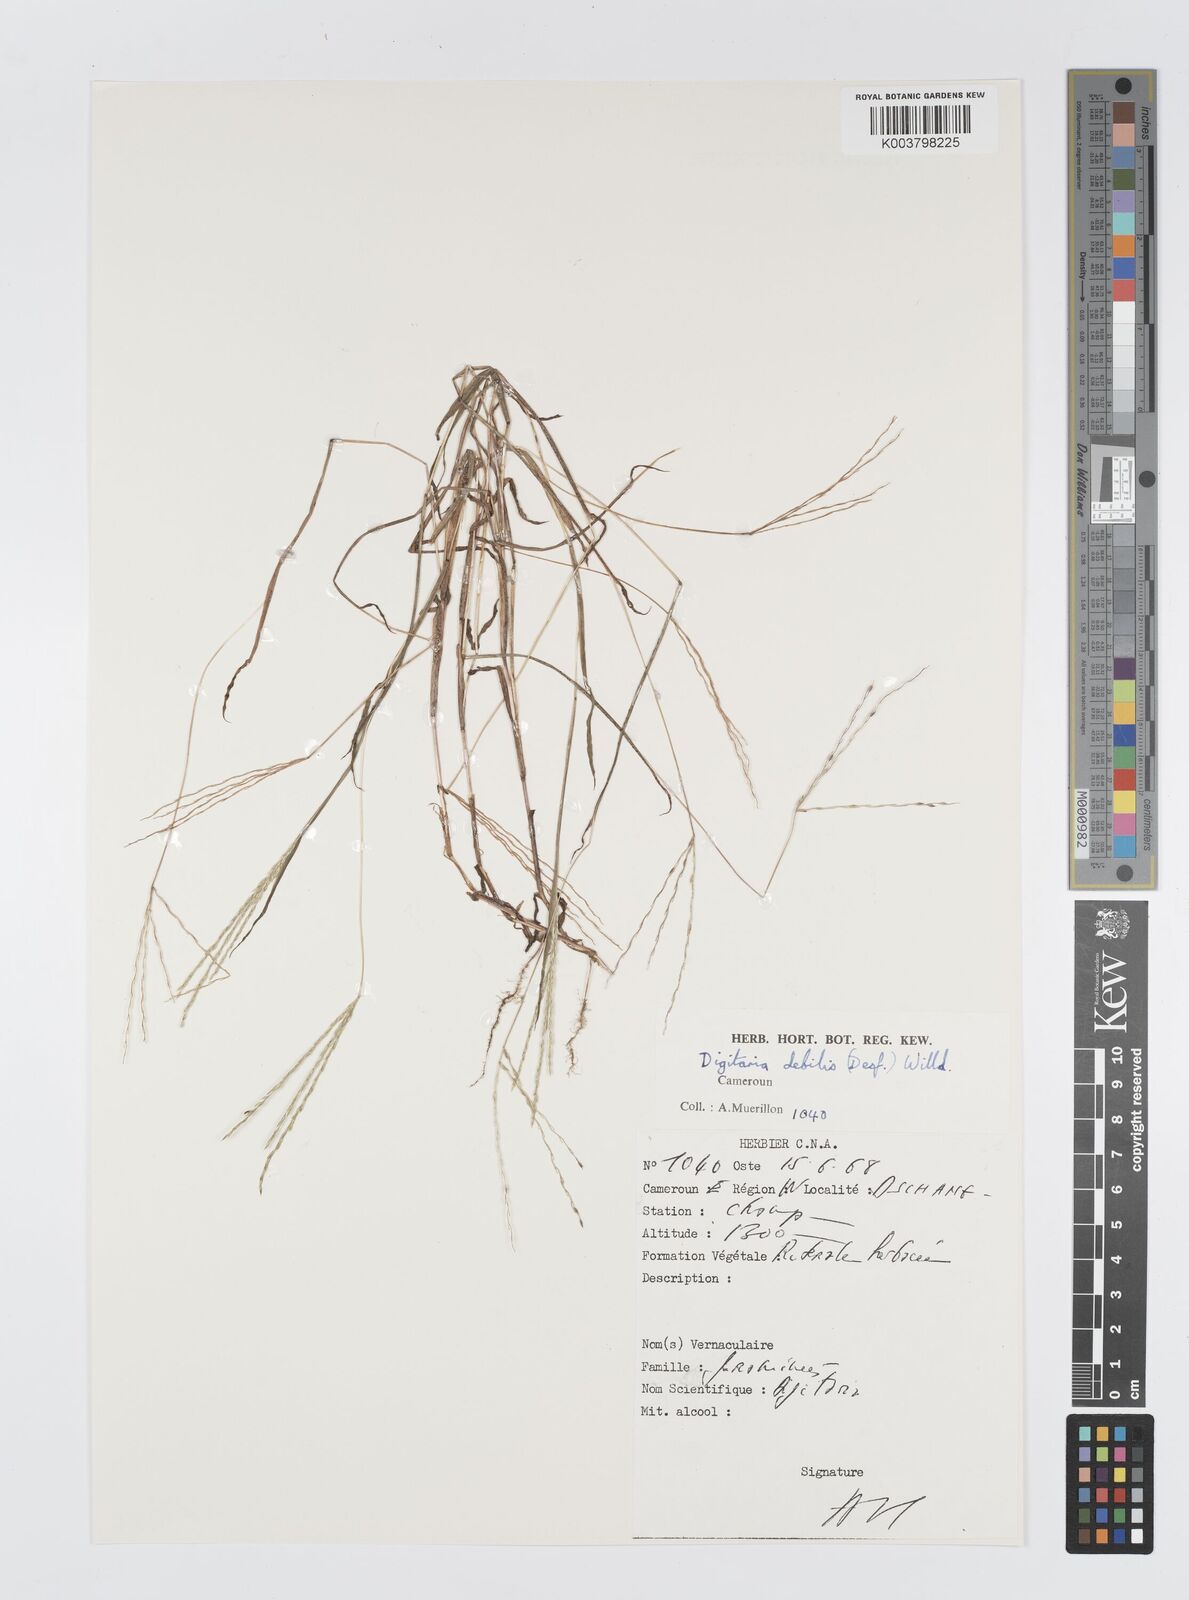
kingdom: Plantae
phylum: Tracheophyta
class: Liliopsida
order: Poales
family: Poaceae
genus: Digitaria
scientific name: Digitaria debilis
